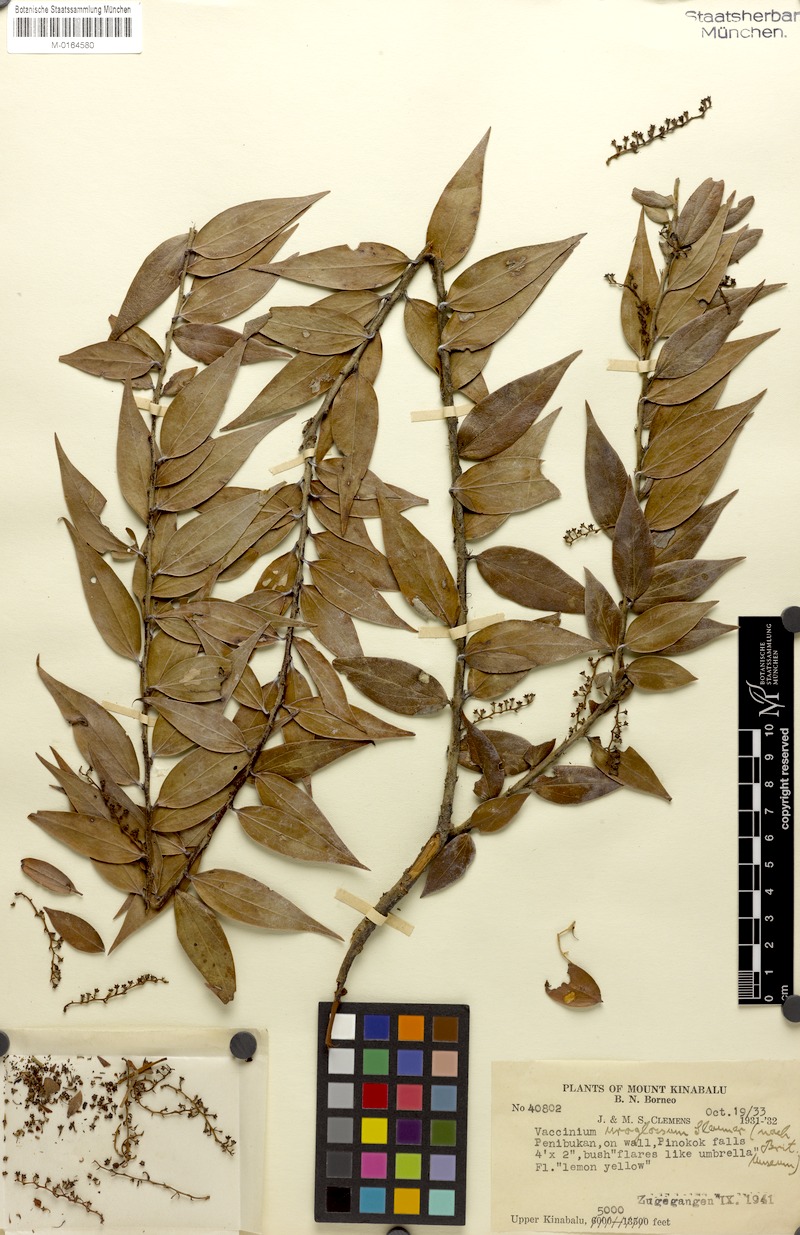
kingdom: Plantae
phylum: Tracheophyta
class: Magnoliopsida
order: Ericales
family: Ericaceae
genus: Rigiolepis
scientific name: Rigiolepis uroglossa
